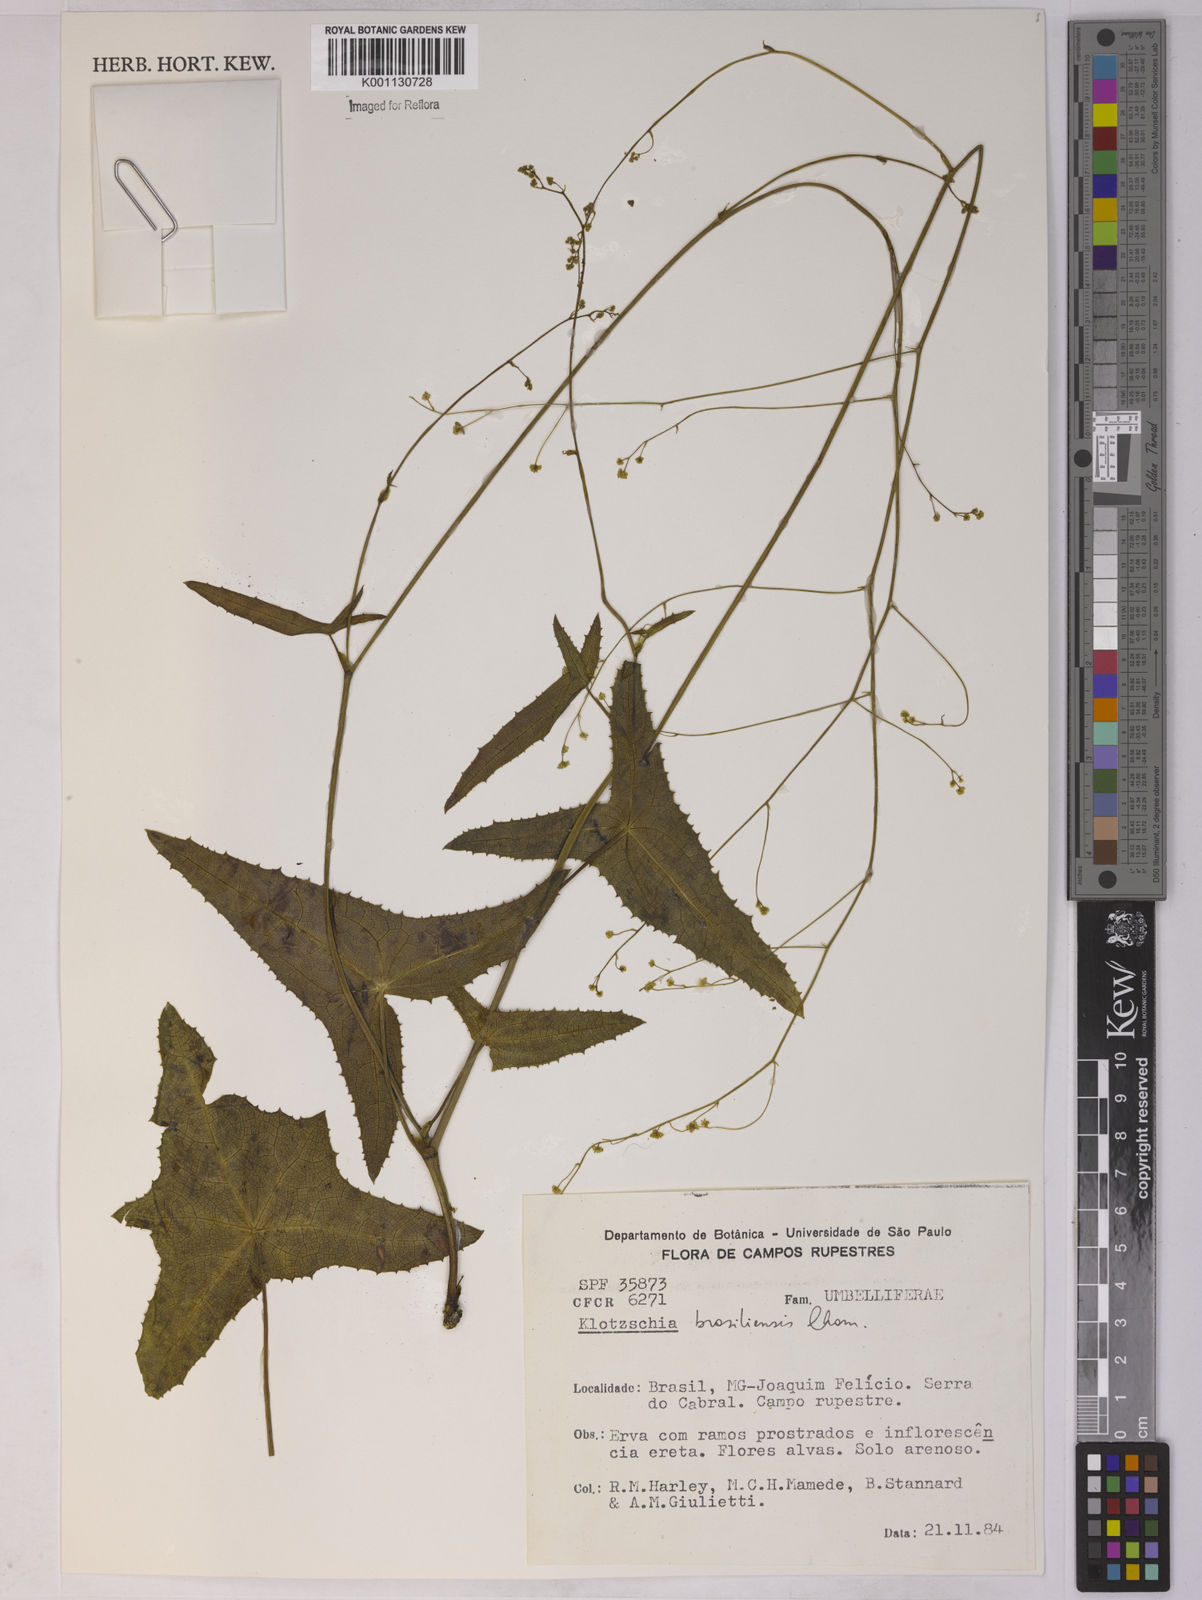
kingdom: Plantae
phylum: Tracheophyta
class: Magnoliopsida
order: Apiales
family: Apiaceae
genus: Klotzschia
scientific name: Klotzschia brasiliensis
